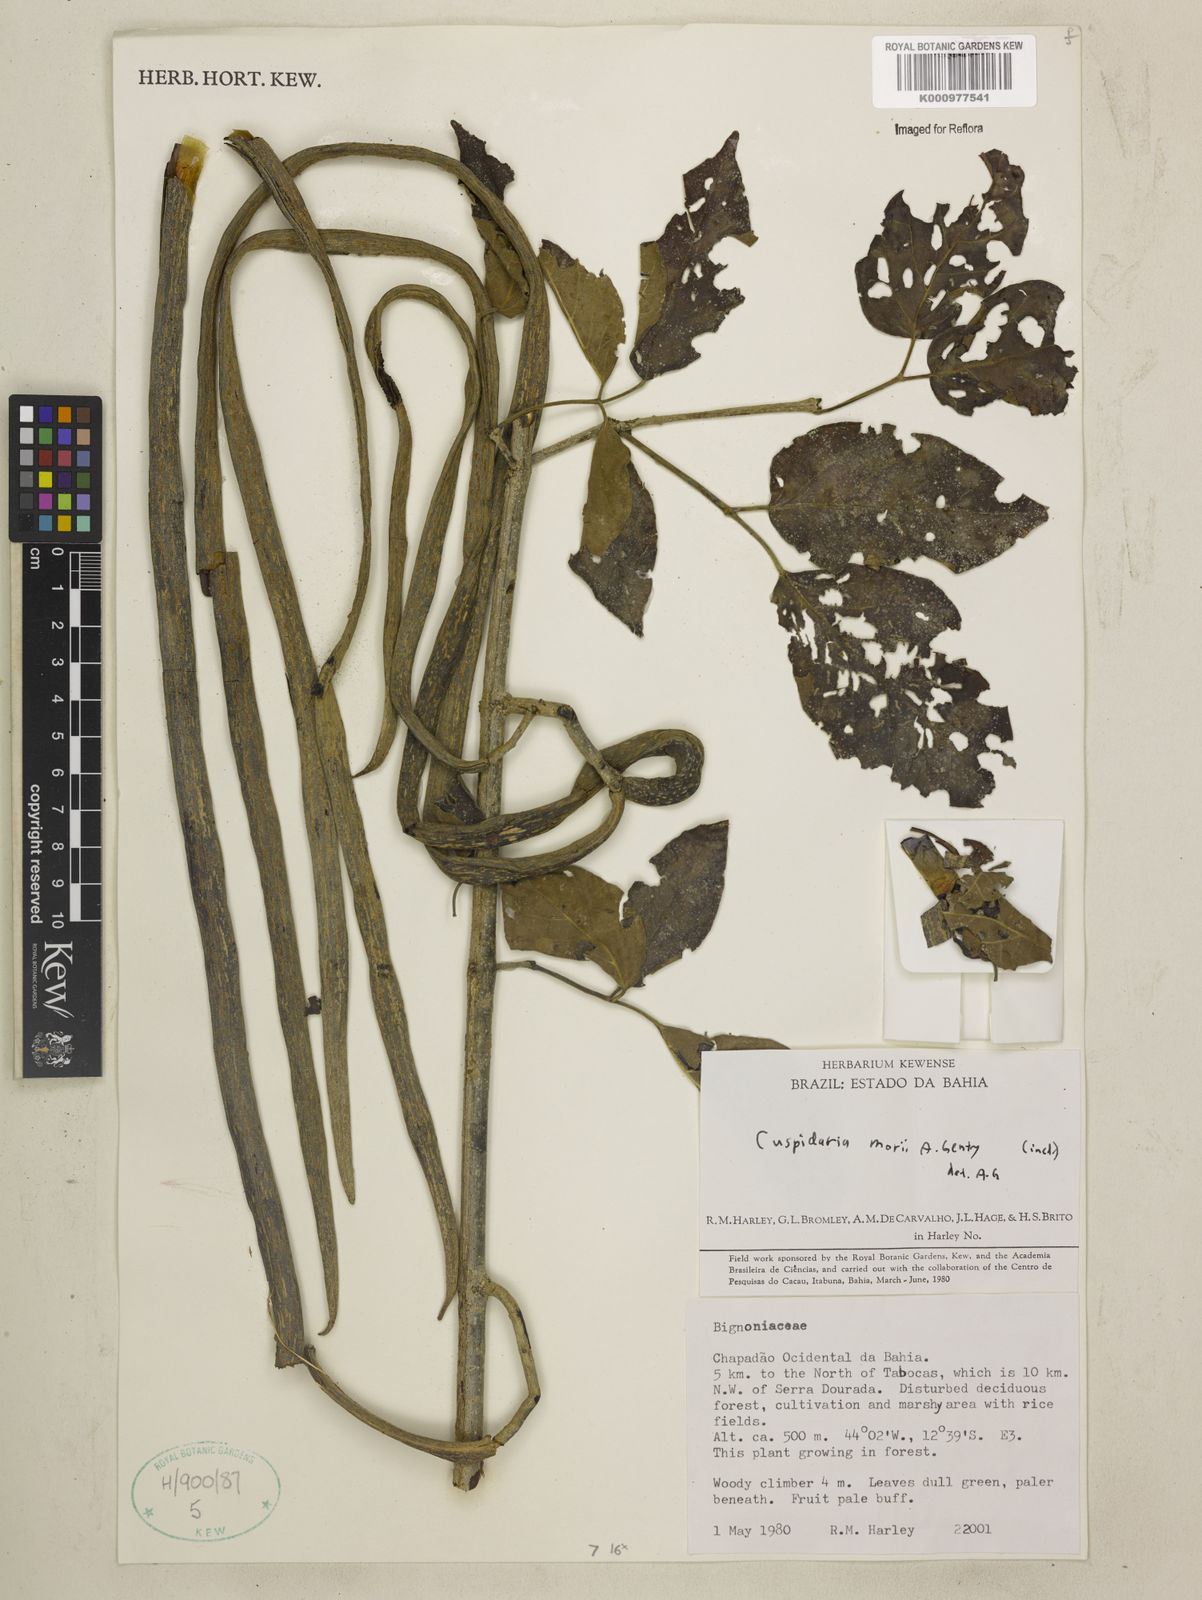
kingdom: Plantae
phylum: Tracheophyta
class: Magnoliopsida
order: Lamiales
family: Bignoniaceae
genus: Cuspidaria
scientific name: Cuspidaria
